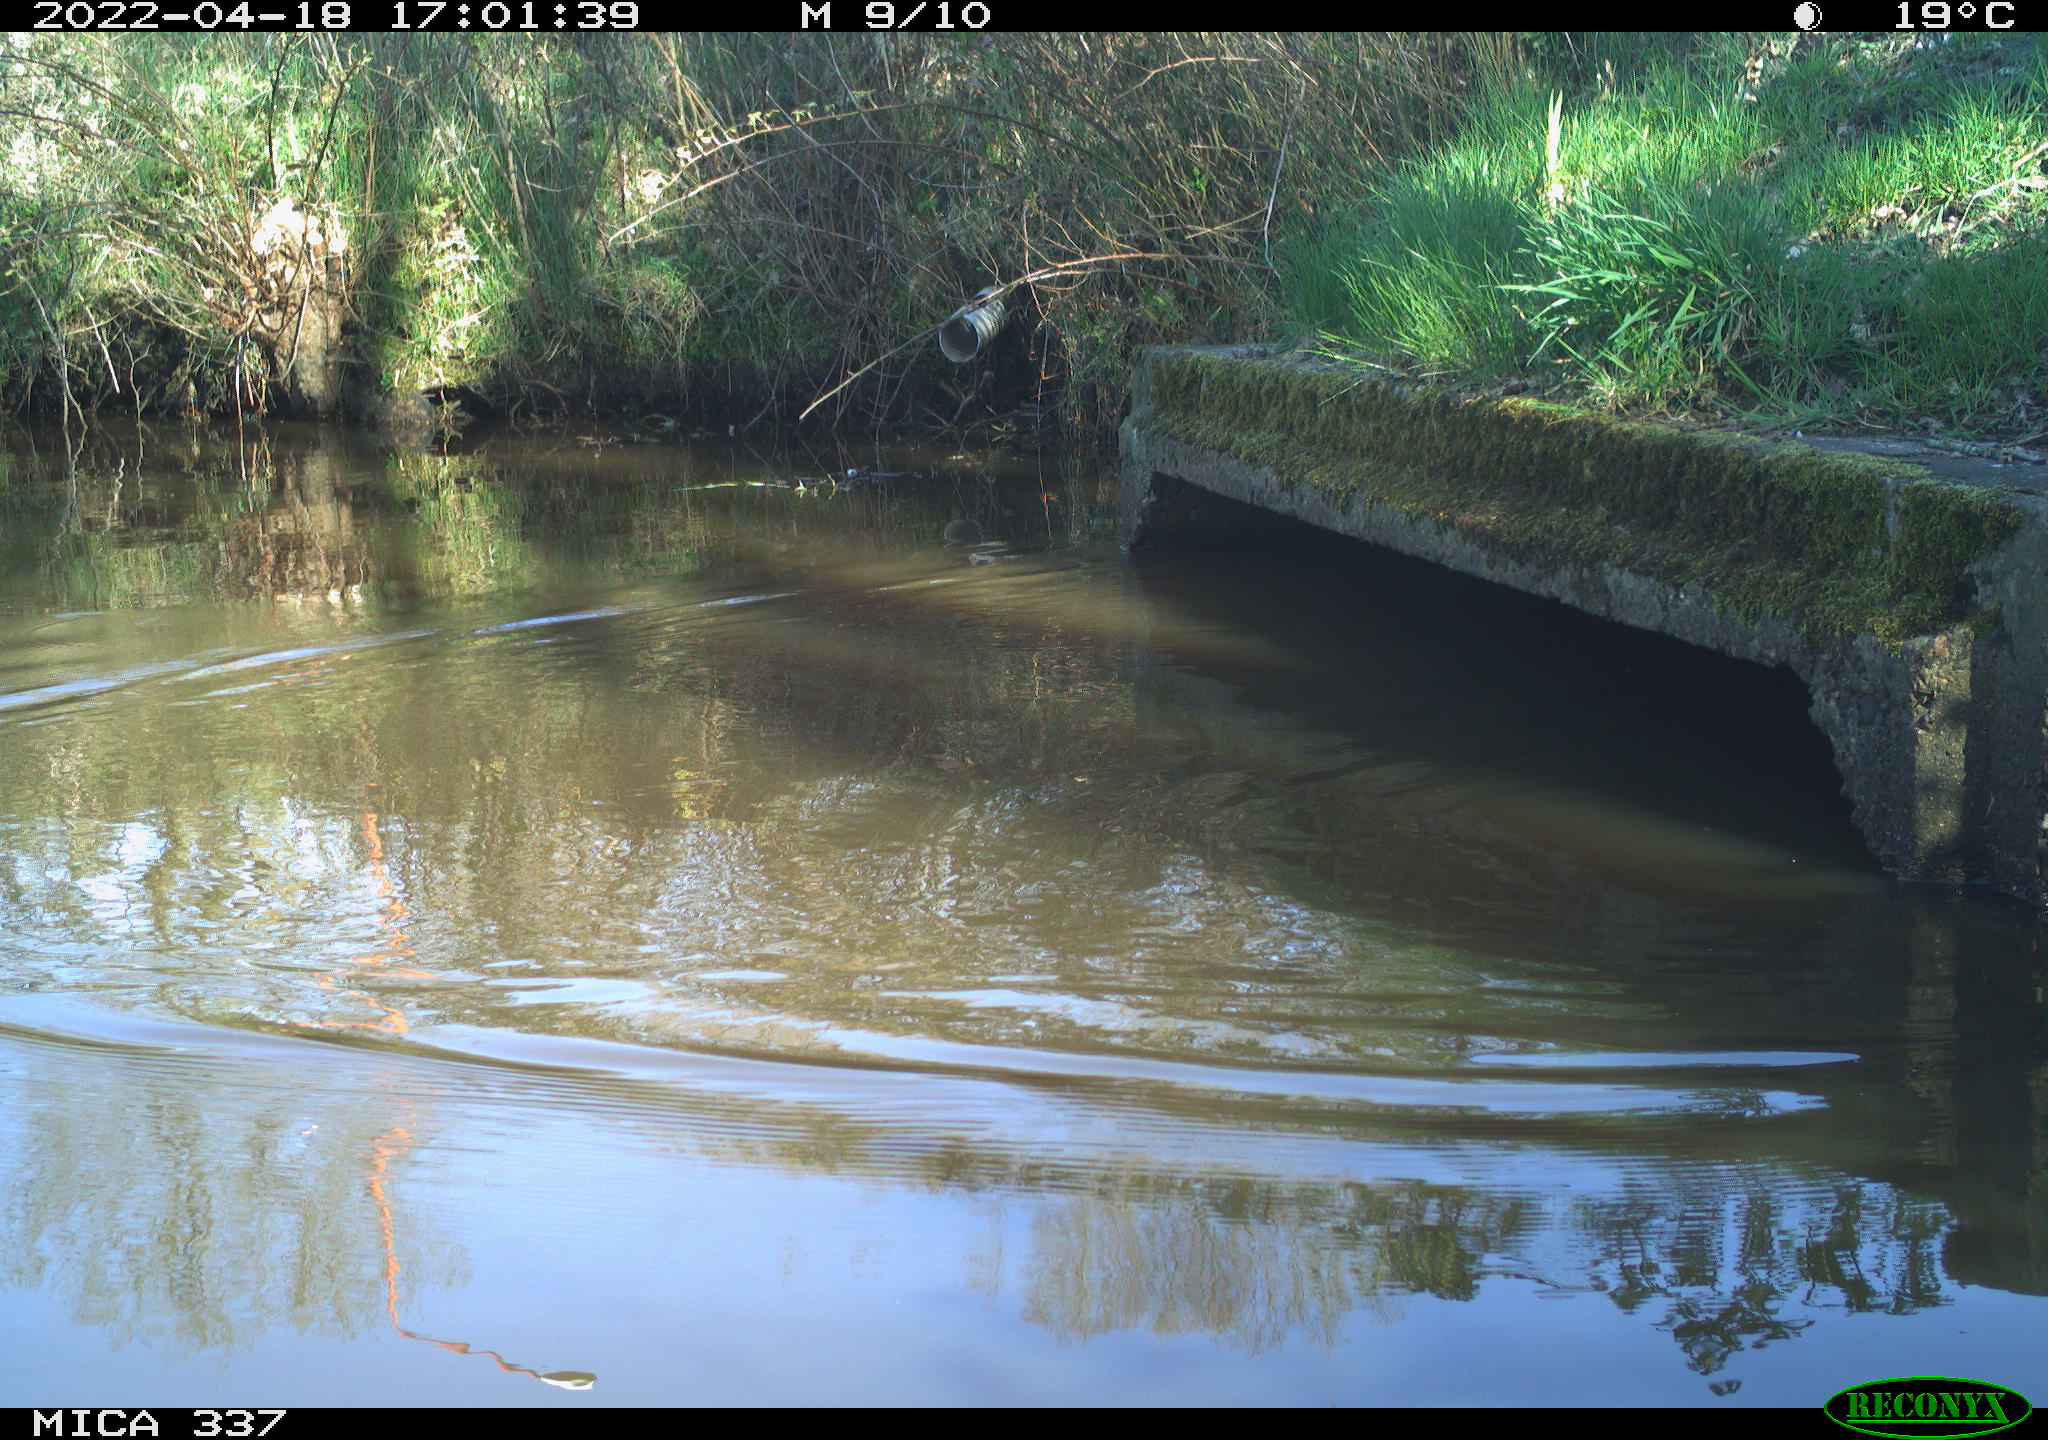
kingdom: Animalia
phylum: Chordata
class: Aves
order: Anseriformes
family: Anatidae
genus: Anas
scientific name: Anas platyrhynchos
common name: Mallard
